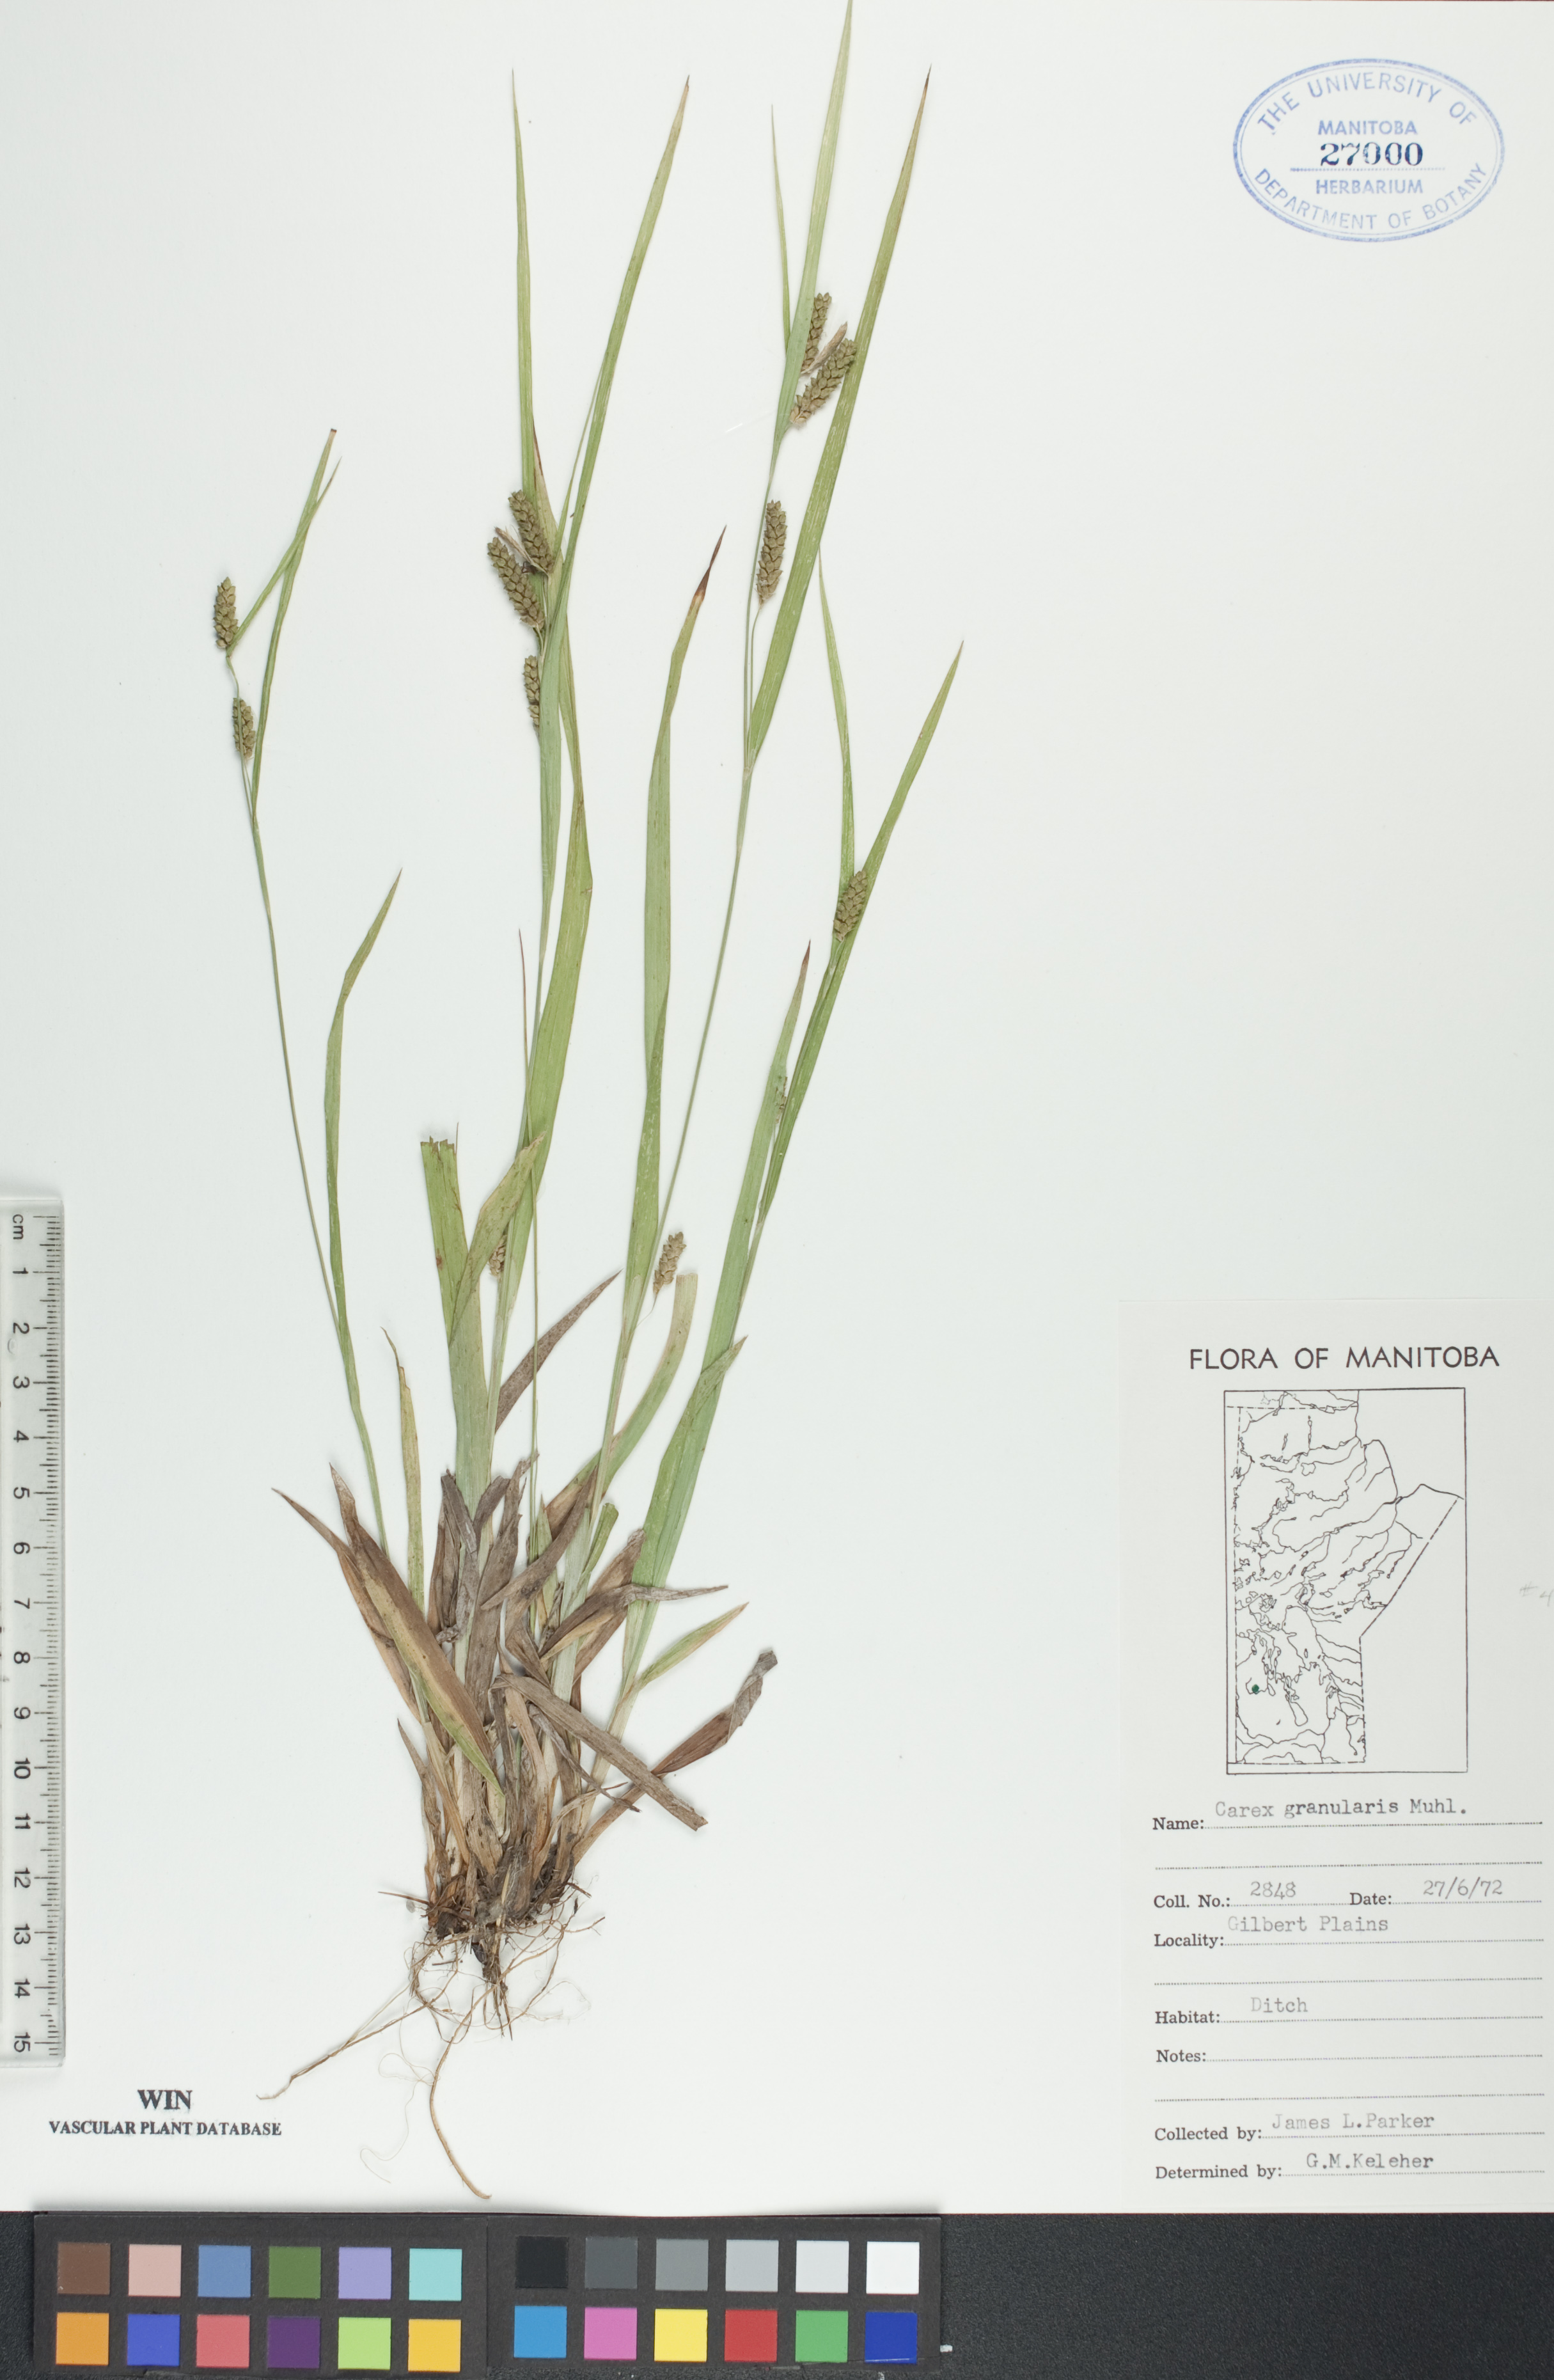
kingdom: Plantae
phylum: Tracheophyta
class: Liliopsida
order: Poales
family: Cyperaceae
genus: Carex
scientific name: Carex granularis
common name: Granular sedge
